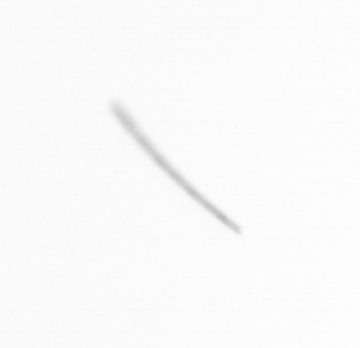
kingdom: Chromista
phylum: Ochrophyta
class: Bacillariophyceae
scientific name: Bacillariophyceae
